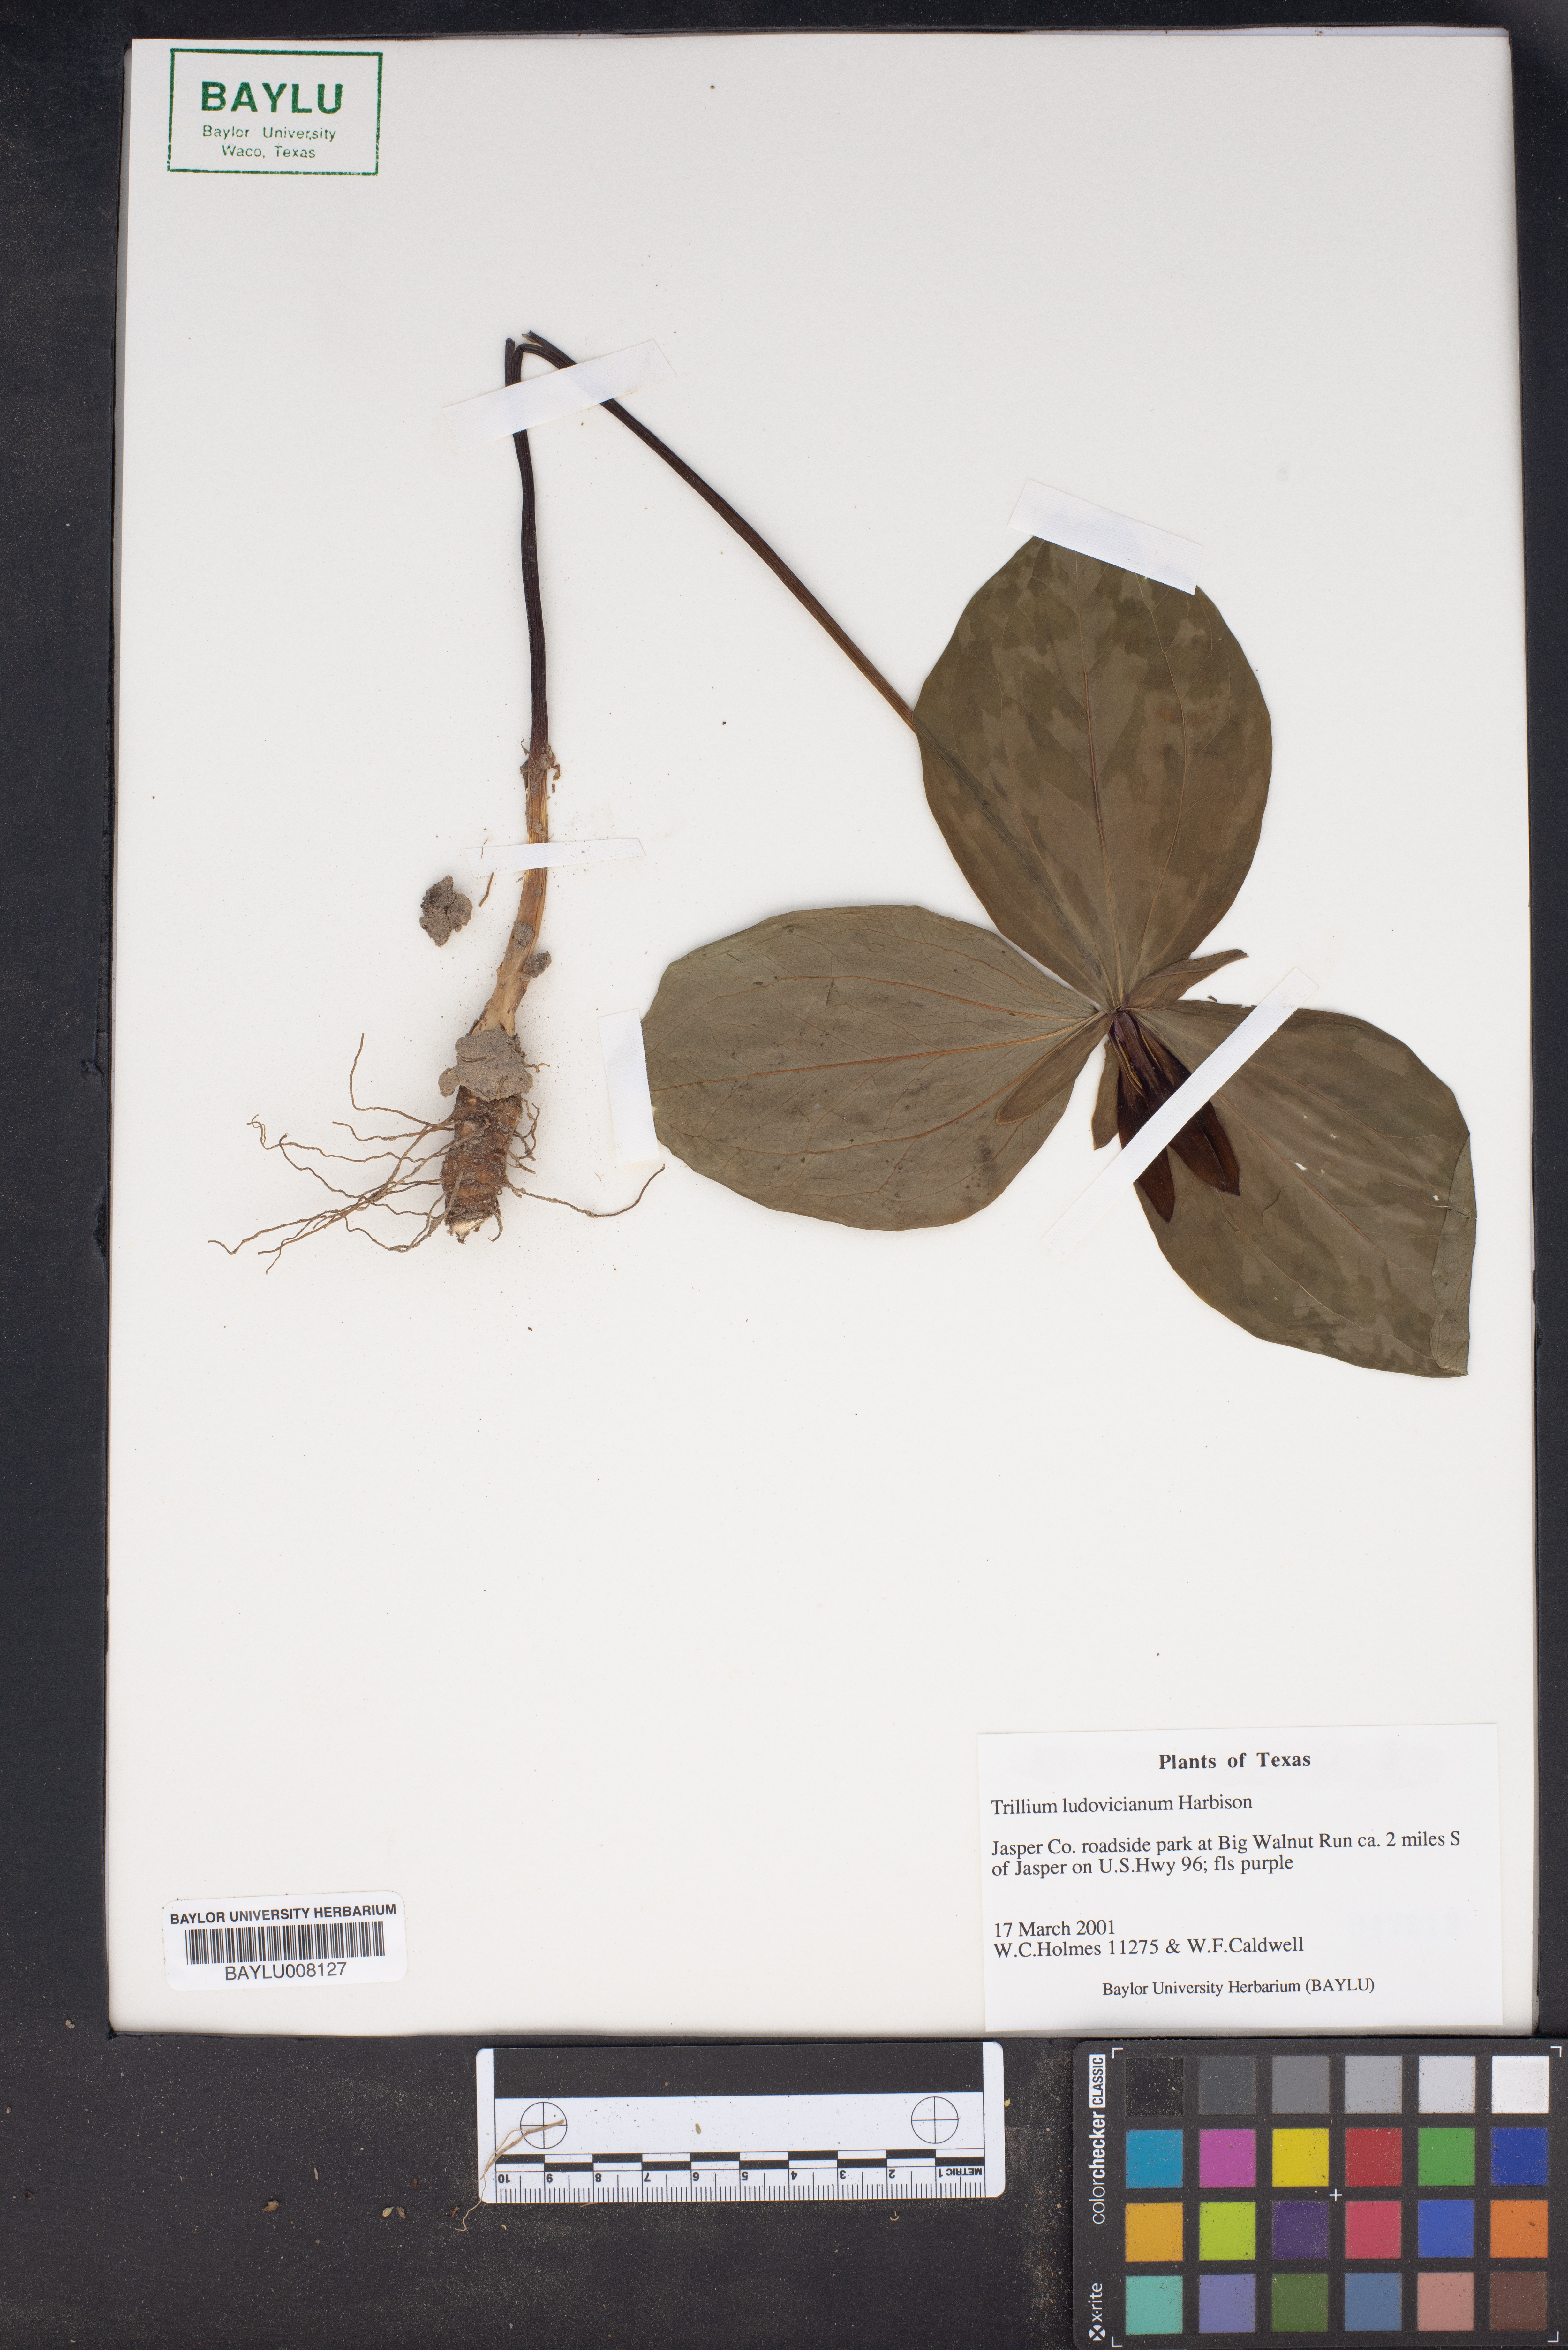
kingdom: Plantae
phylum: Tracheophyta
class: Liliopsida
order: Liliales
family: Melanthiaceae
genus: Trillium
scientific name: Trillium ludovicianum
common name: Louisiana toadshade
